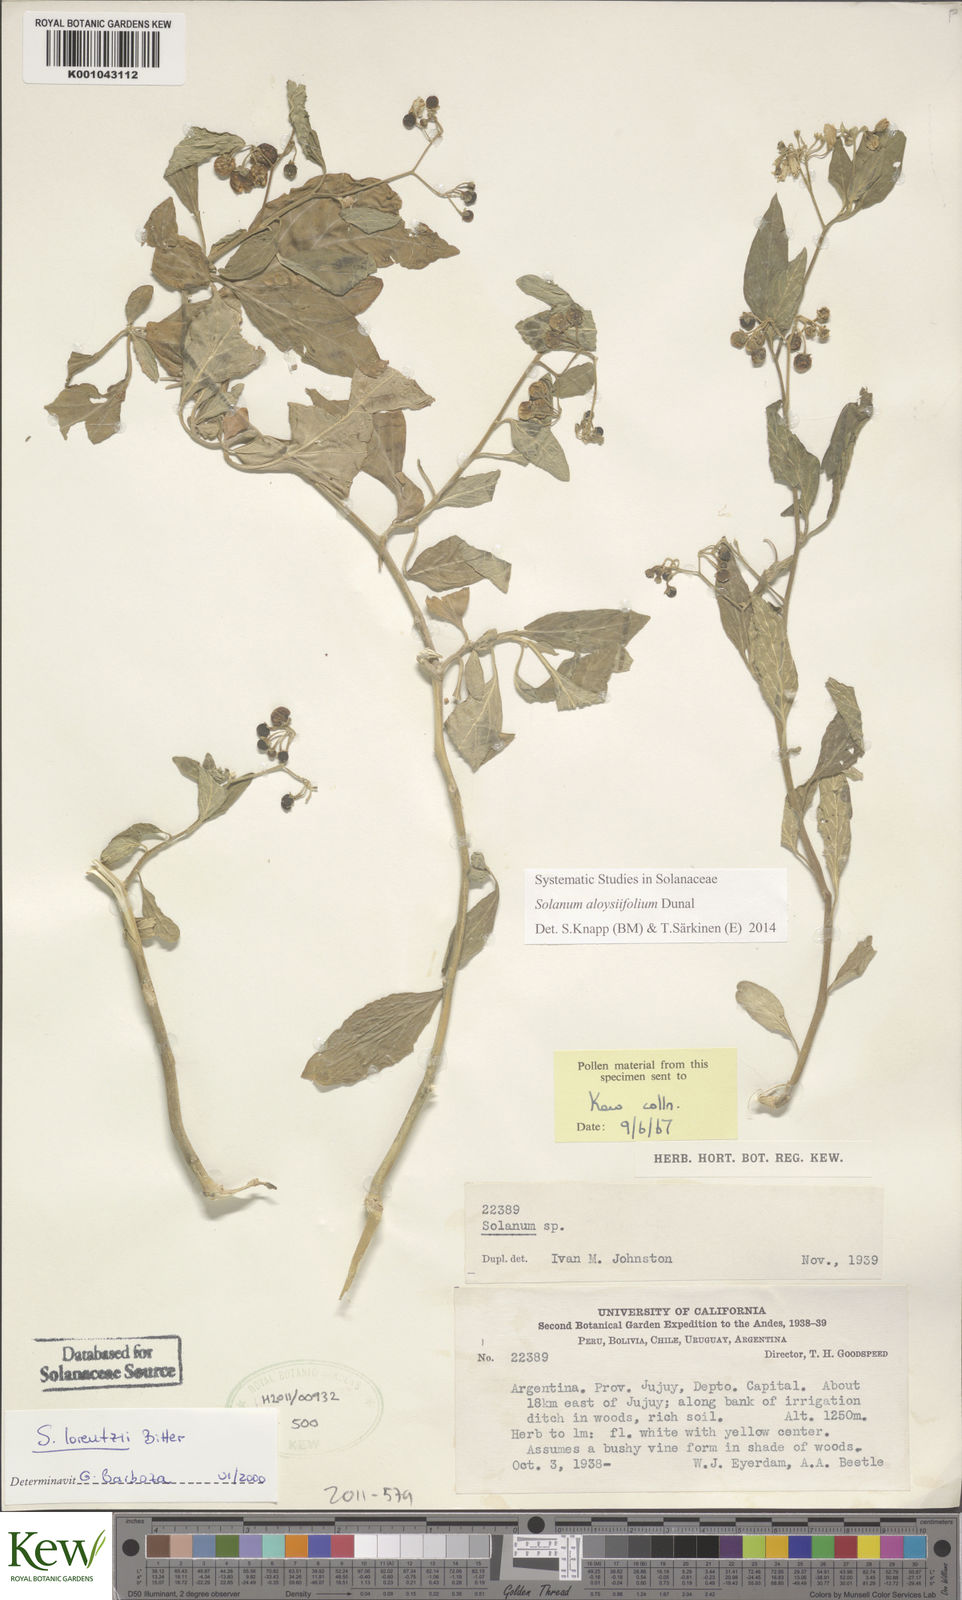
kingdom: Plantae
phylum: Tracheophyta
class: Magnoliopsida
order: Solanales
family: Solanaceae
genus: Solanum
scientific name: Solanum aloysiifolium
